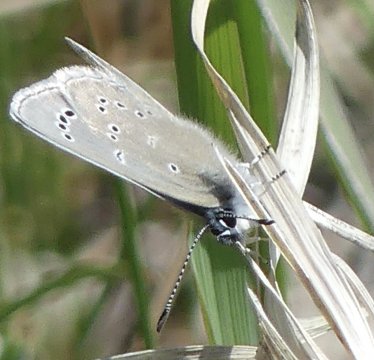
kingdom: Animalia
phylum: Arthropoda
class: Insecta
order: Lepidoptera
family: Lycaenidae
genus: Glaucopsyche
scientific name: Glaucopsyche lygdamus
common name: Silvery Blue
